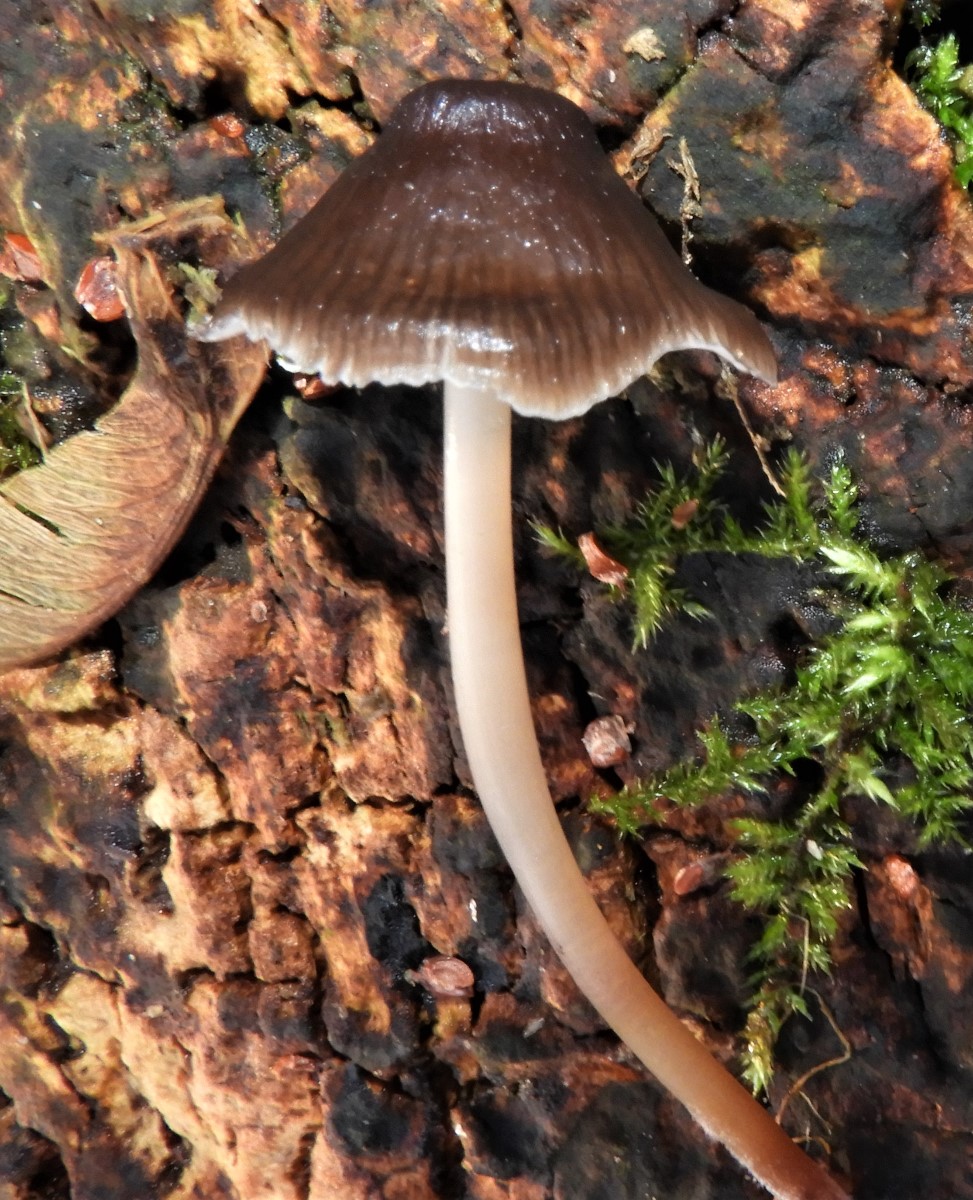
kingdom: Fungi
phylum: Basidiomycota
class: Agaricomycetes
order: Agaricales
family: Mycenaceae
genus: Mycena
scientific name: Mycena tintinnabulum
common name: vinter-huesvamp
